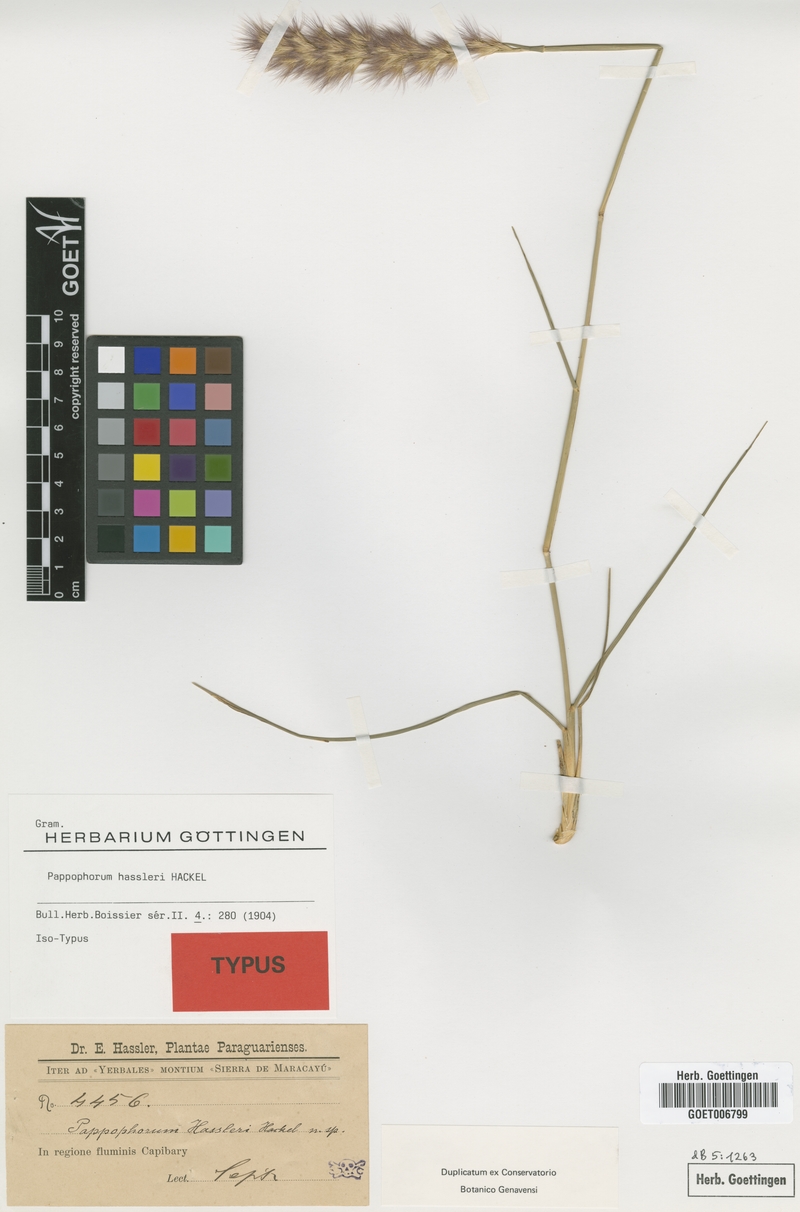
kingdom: Plantae
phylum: Tracheophyta
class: Liliopsida
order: Poales
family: Poaceae
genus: Pappophorum
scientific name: Pappophorum hassleri
